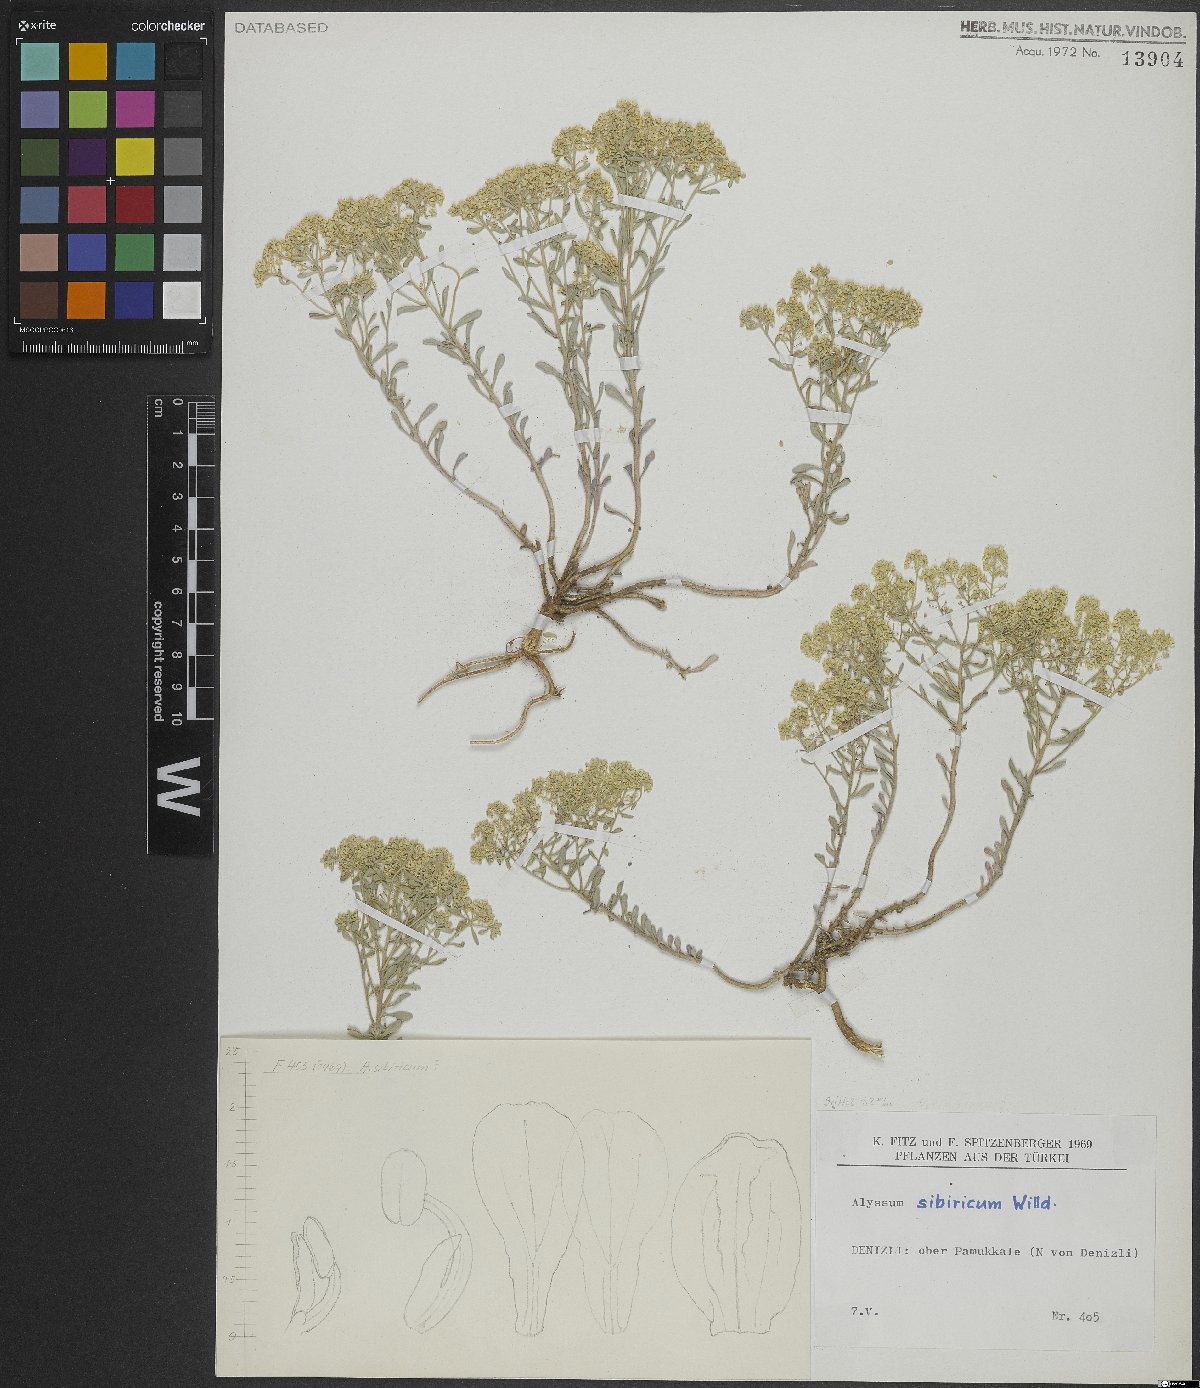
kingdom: Plantae
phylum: Tracheophyta
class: Magnoliopsida
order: Brassicales
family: Brassicaceae
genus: Odontarrhena
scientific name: Odontarrhena sibirica
